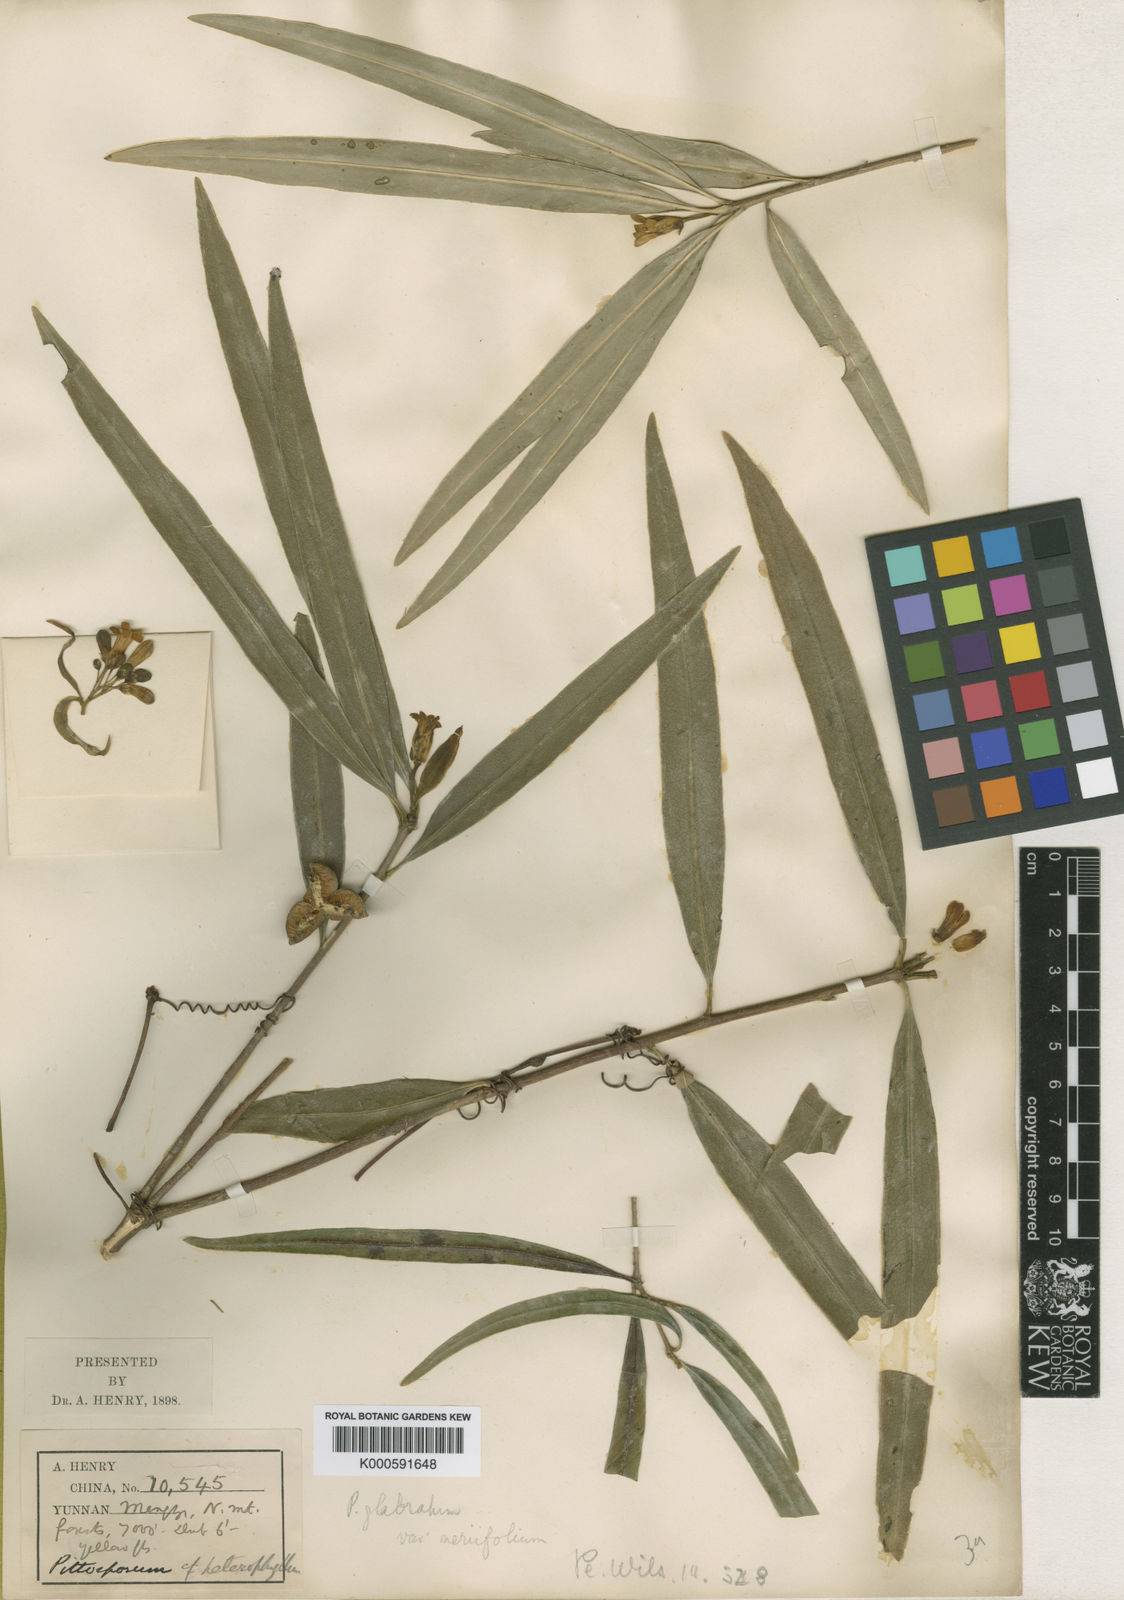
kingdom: Plantae
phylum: Tracheophyta
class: Magnoliopsida
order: Apiales
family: Pittosporaceae
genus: Pittosporum
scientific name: Pittosporum podocarpum
